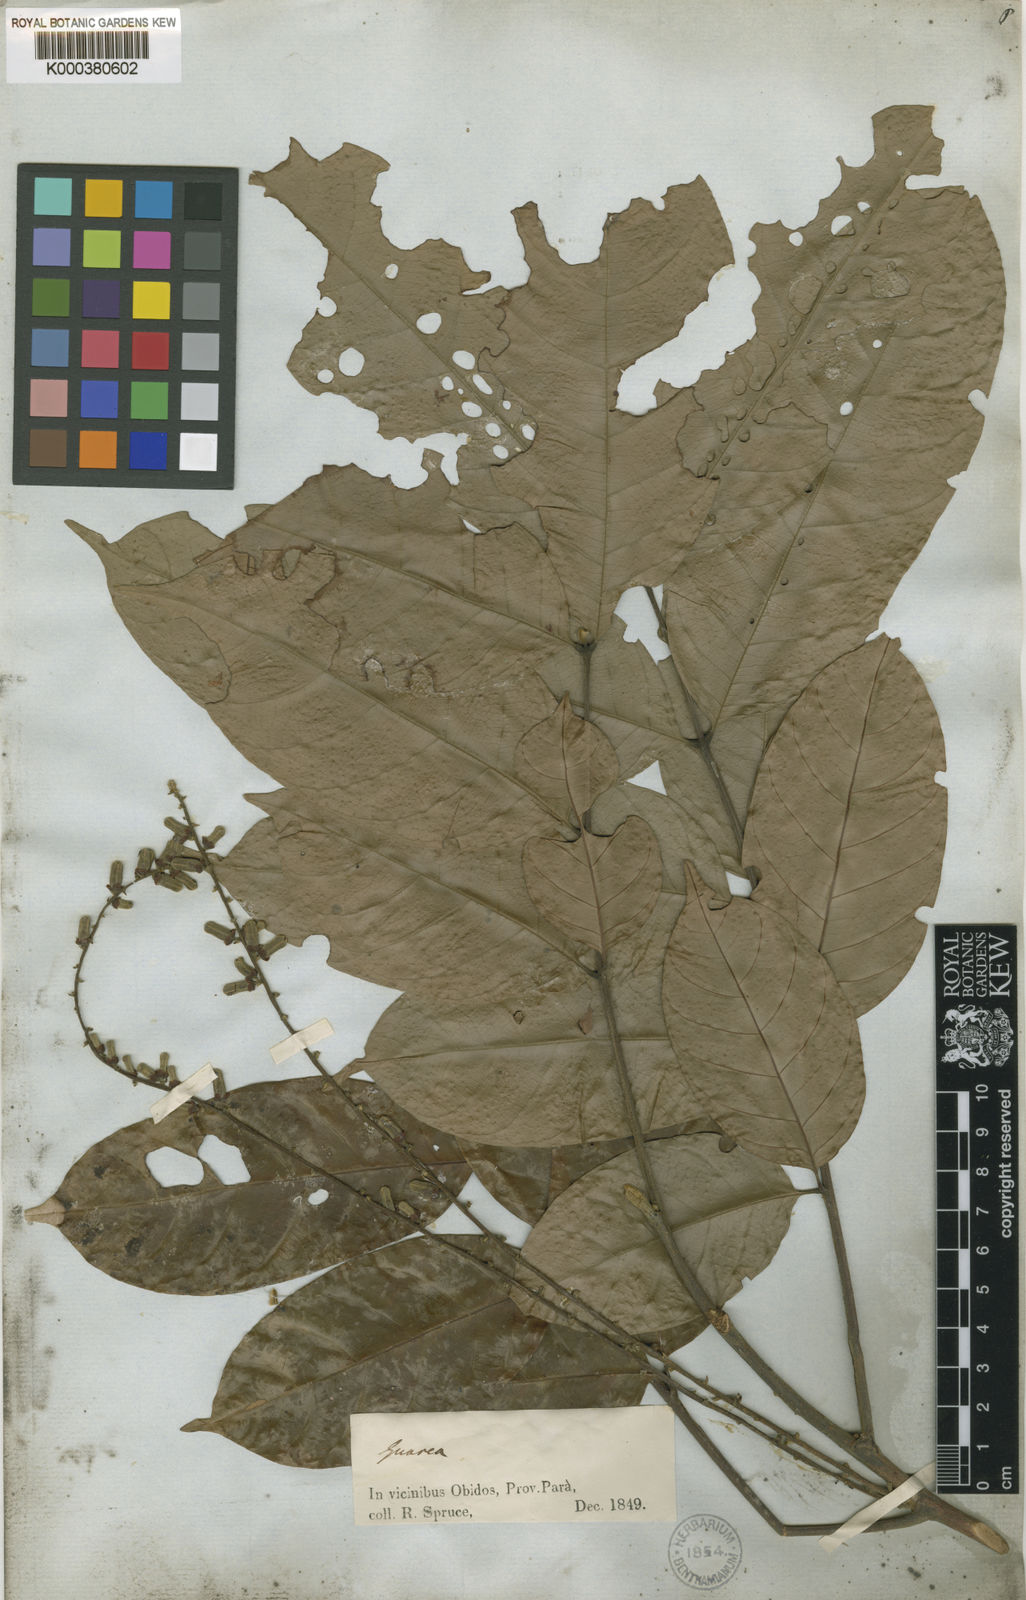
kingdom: Plantae
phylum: Tracheophyta
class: Magnoliopsida
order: Sapindales
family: Meliaceae
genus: Guarea
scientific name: Guarea macrophylla
